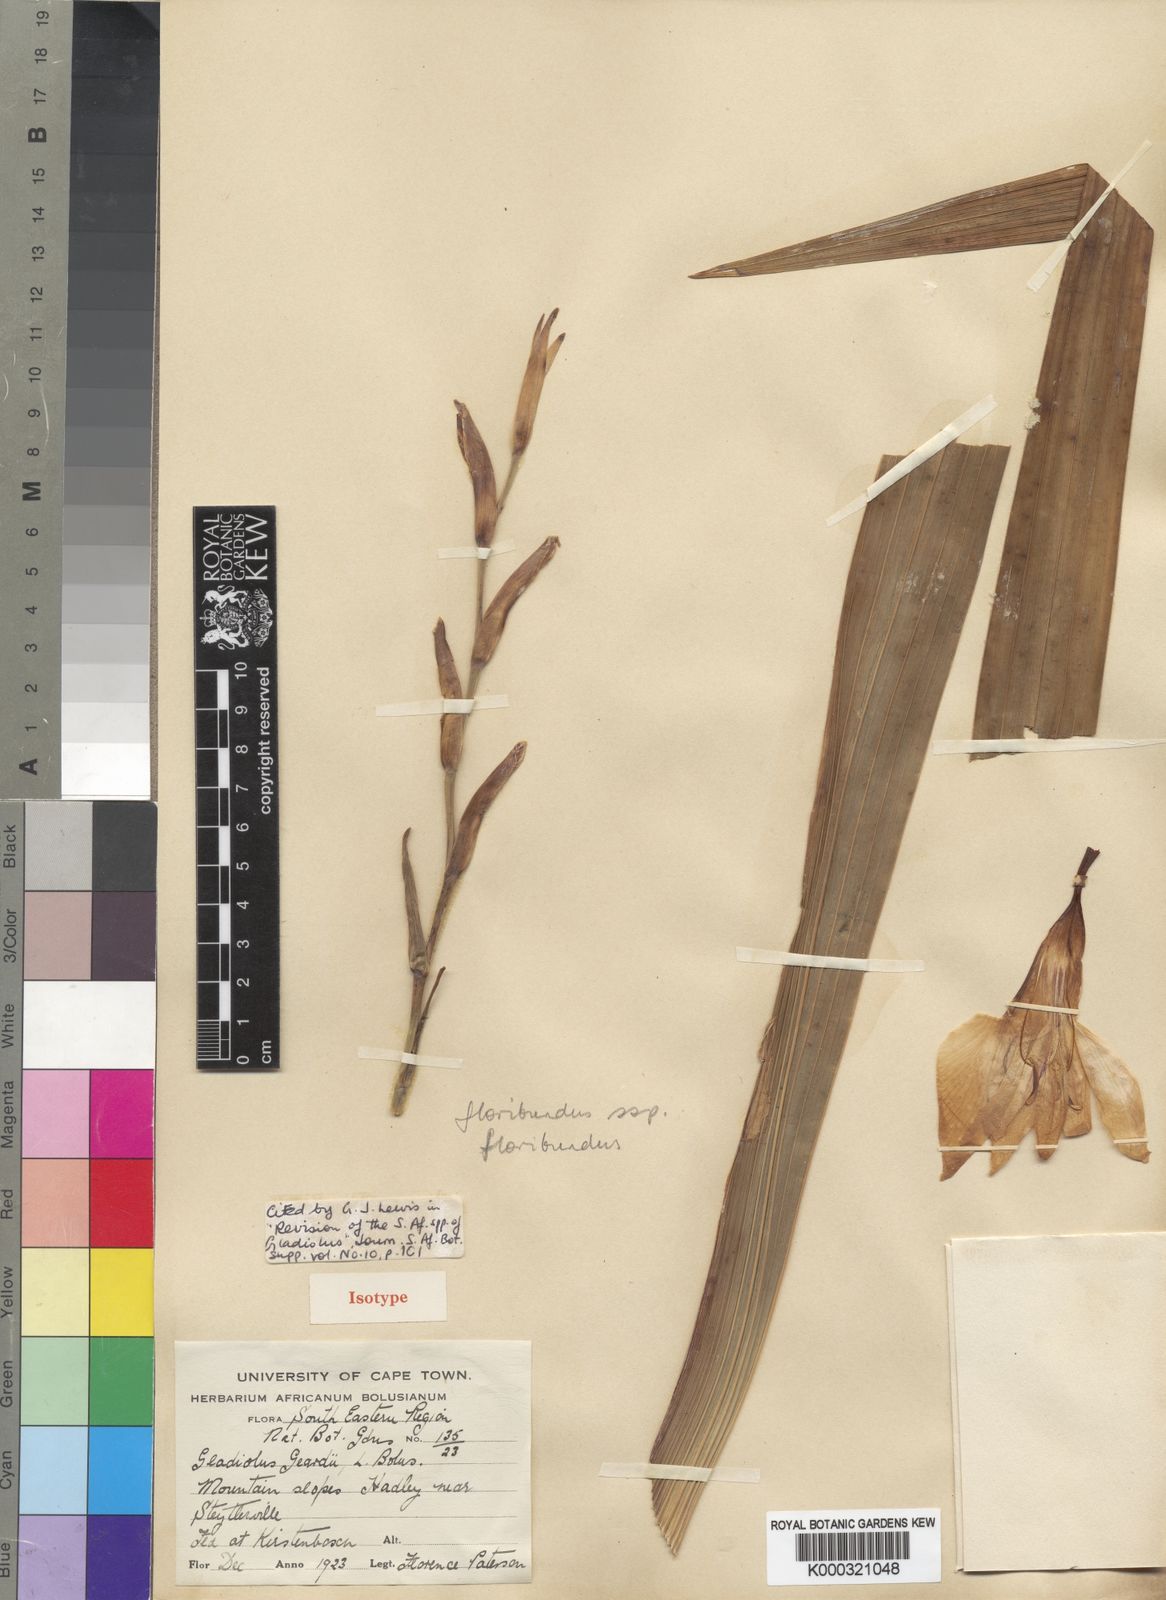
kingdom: Plantae
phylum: Tracheophyta
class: Liliopsida
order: Asparagales
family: Iridaceae
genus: Gladiolus
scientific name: Gladiolus geardii
